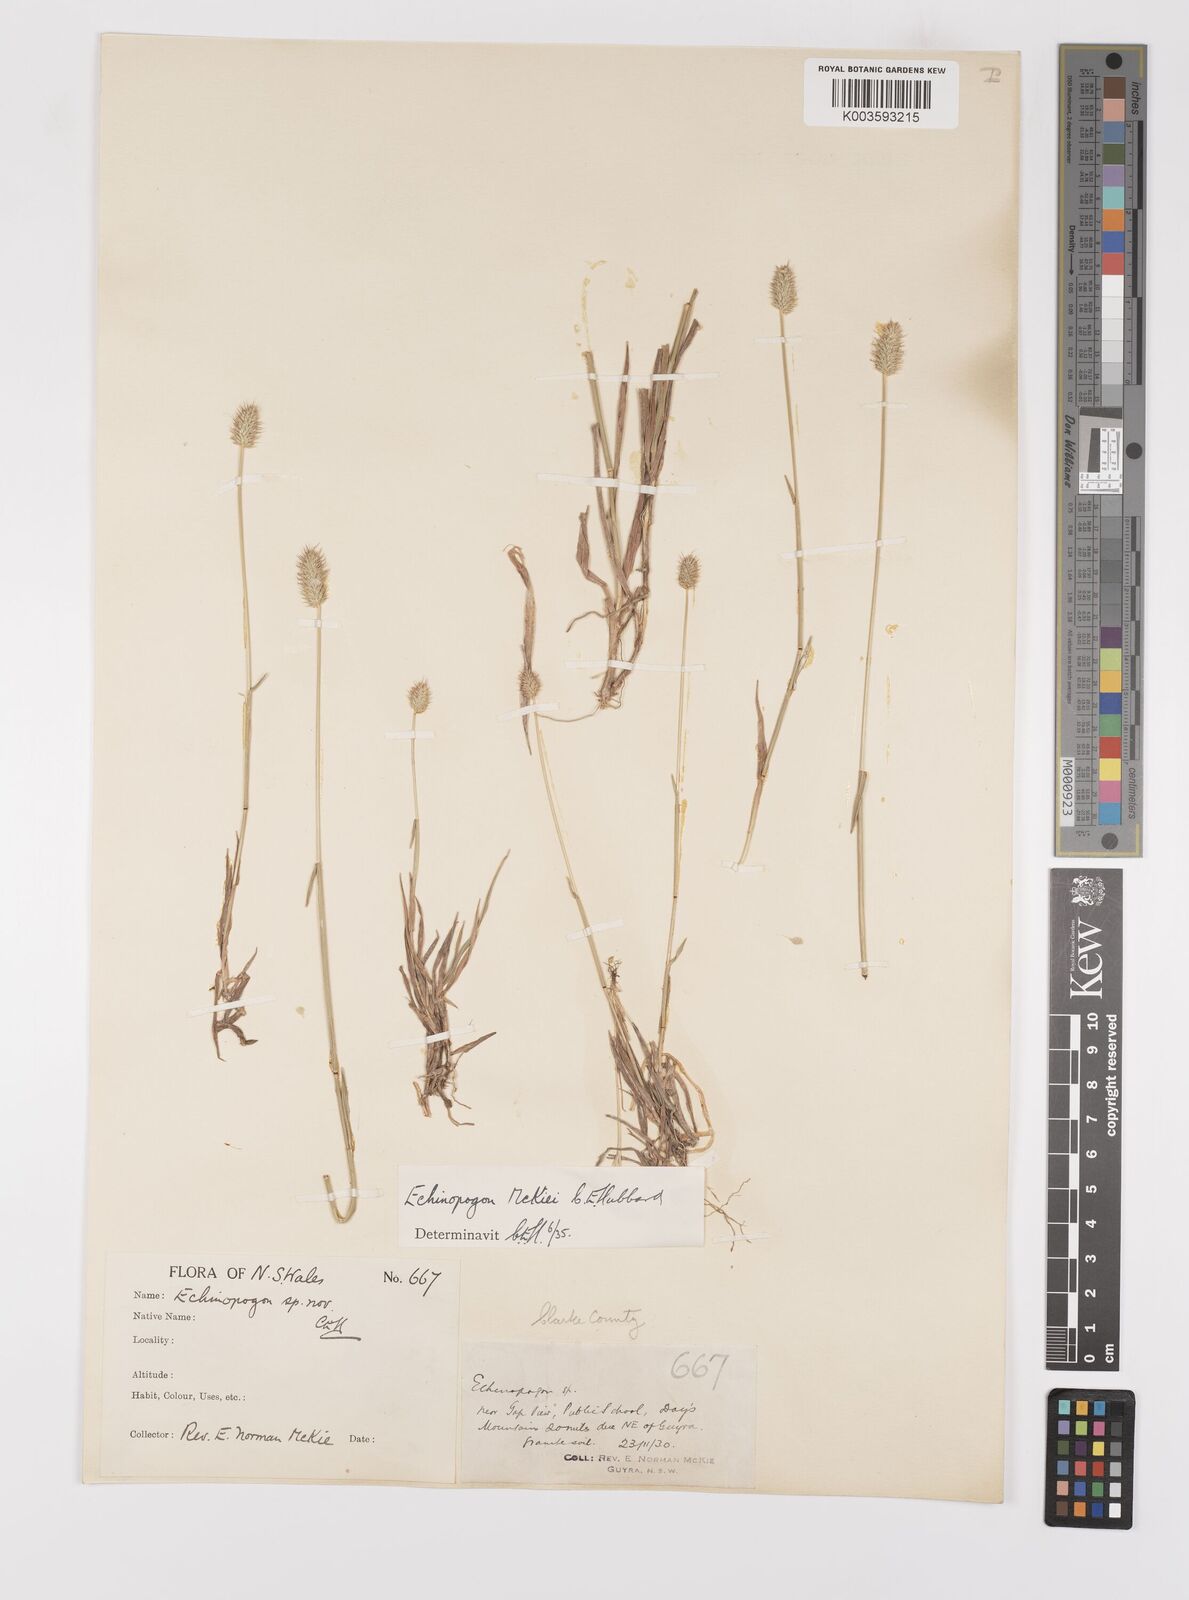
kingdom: Plantae
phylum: Tracheophyta
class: Liliopsida
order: Poales
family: Poaceae
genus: Echinopogon
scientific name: Echinopogon mckiei
